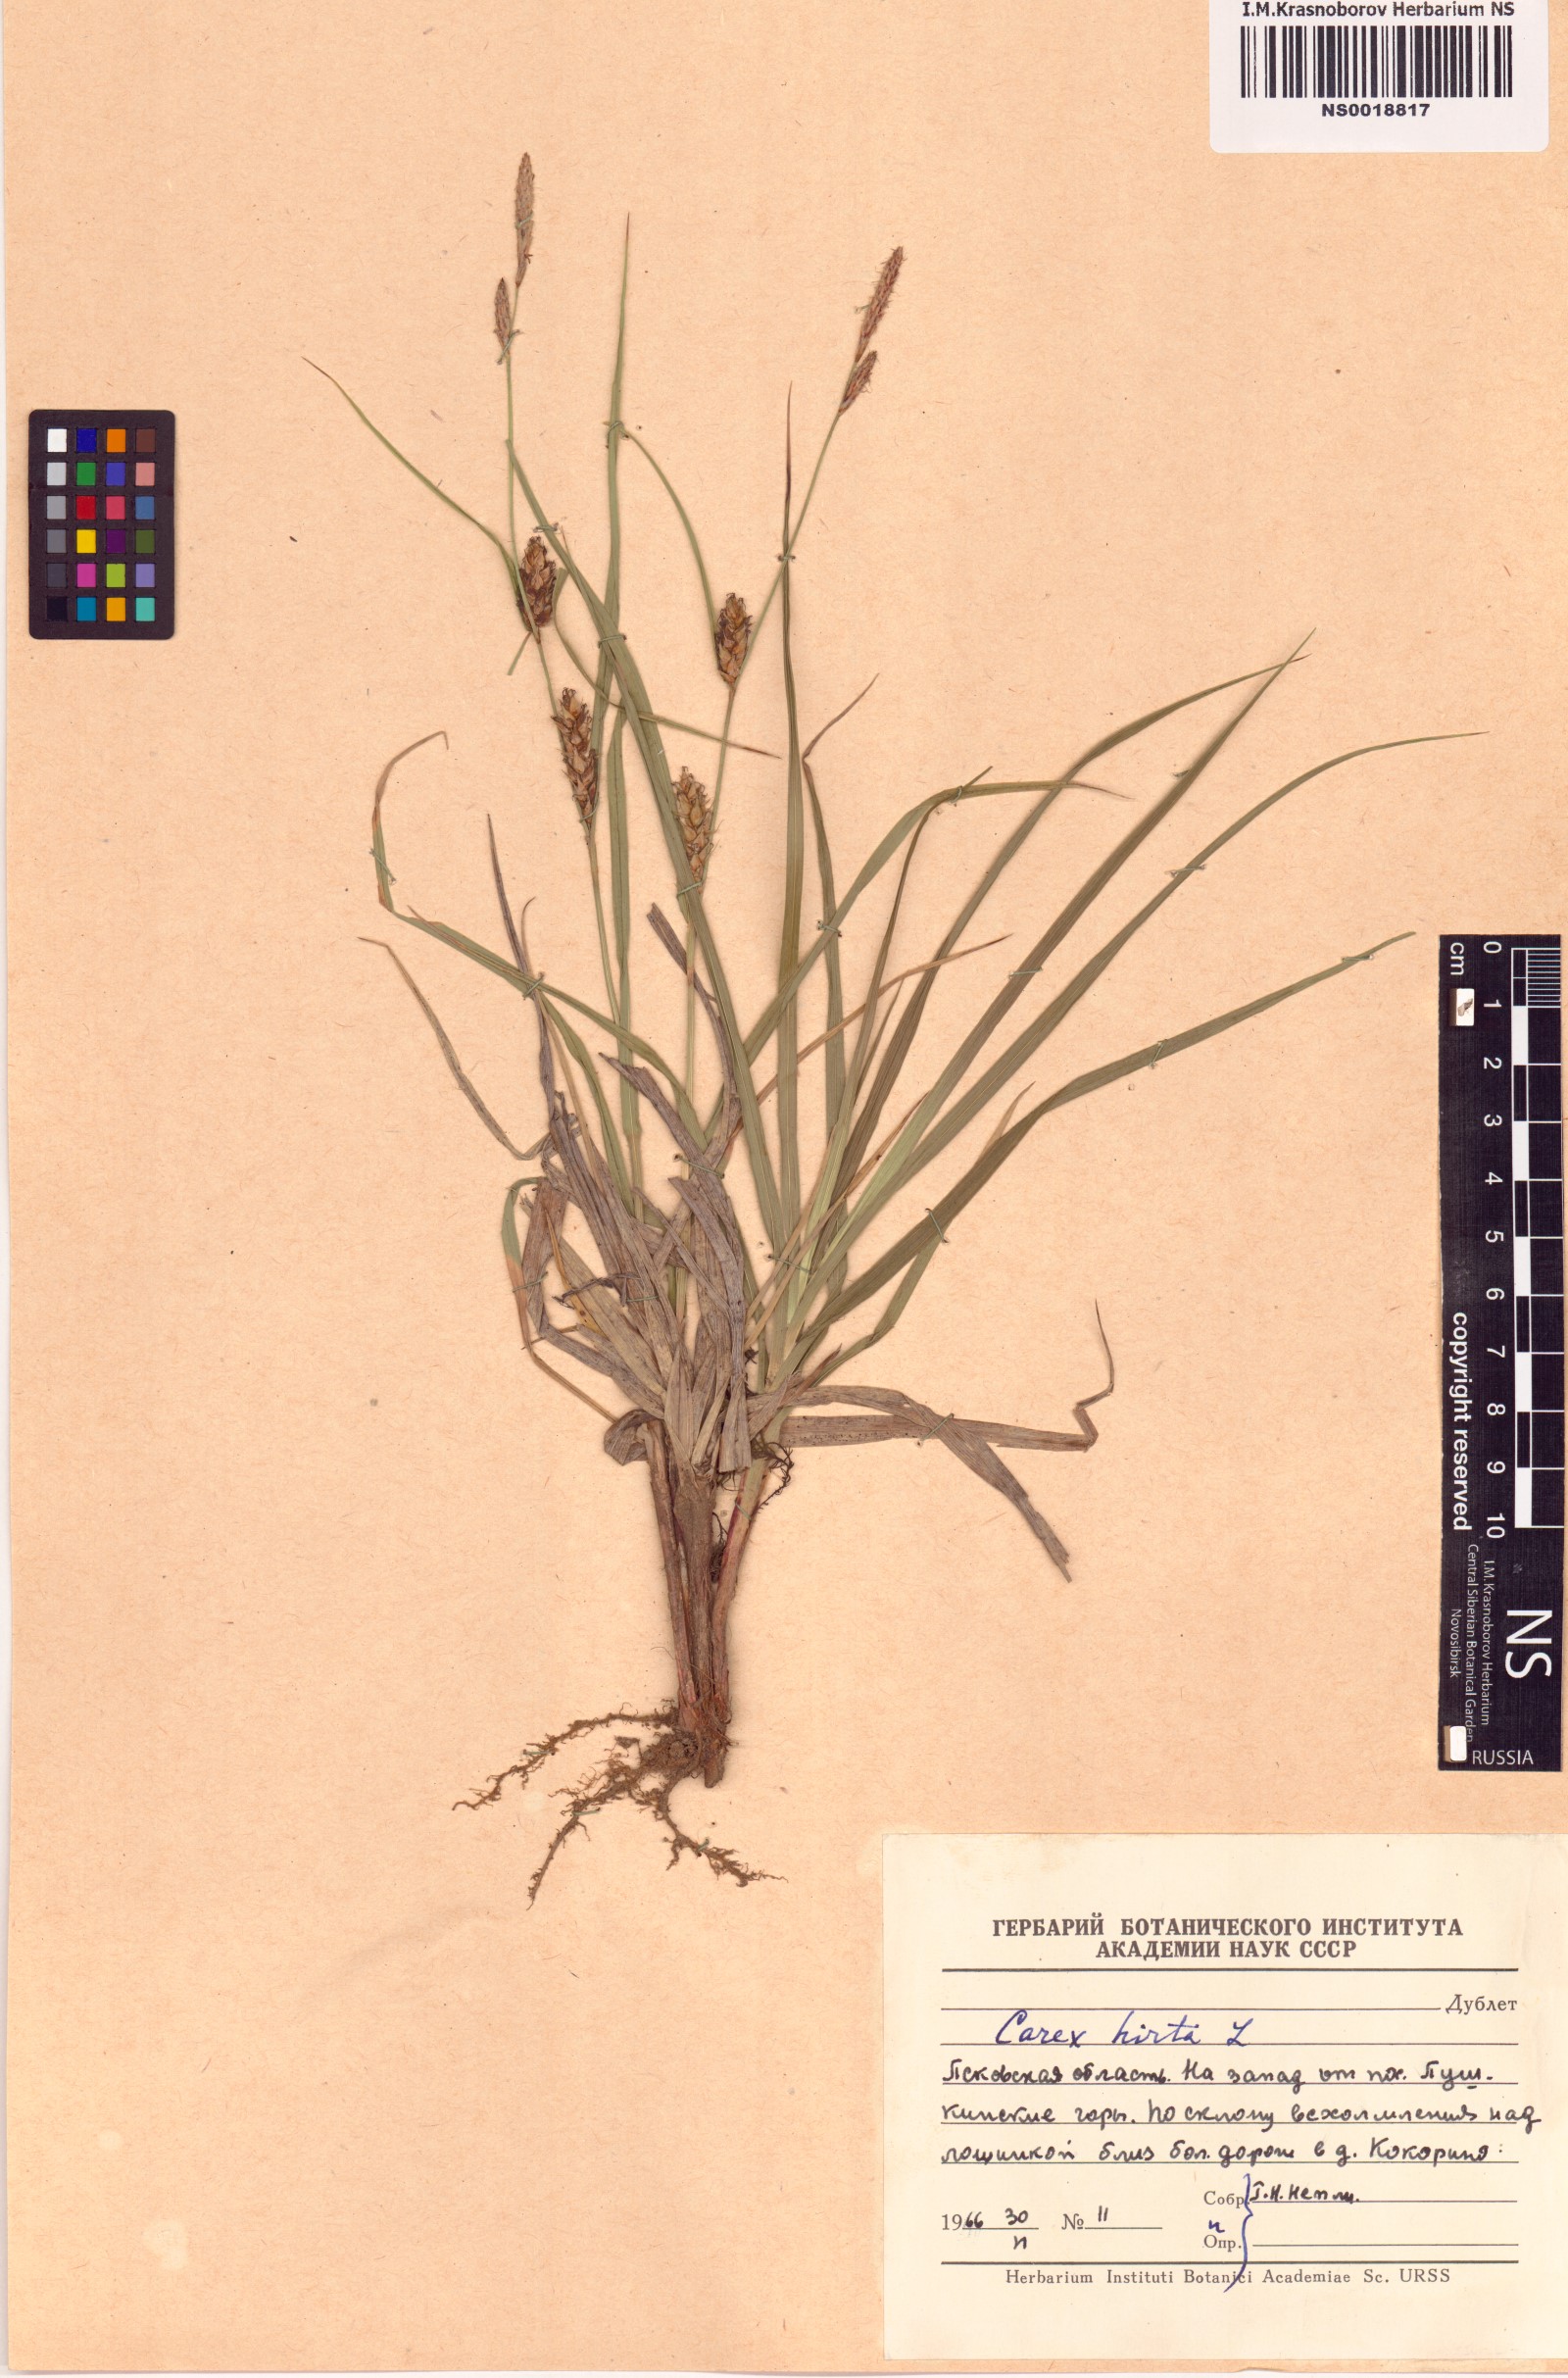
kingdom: Plantae
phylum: Tracheophyta
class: Liliopsida
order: Poales
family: Cyperaceae
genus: Carex
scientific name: Carex hirta
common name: Hairy sedge
